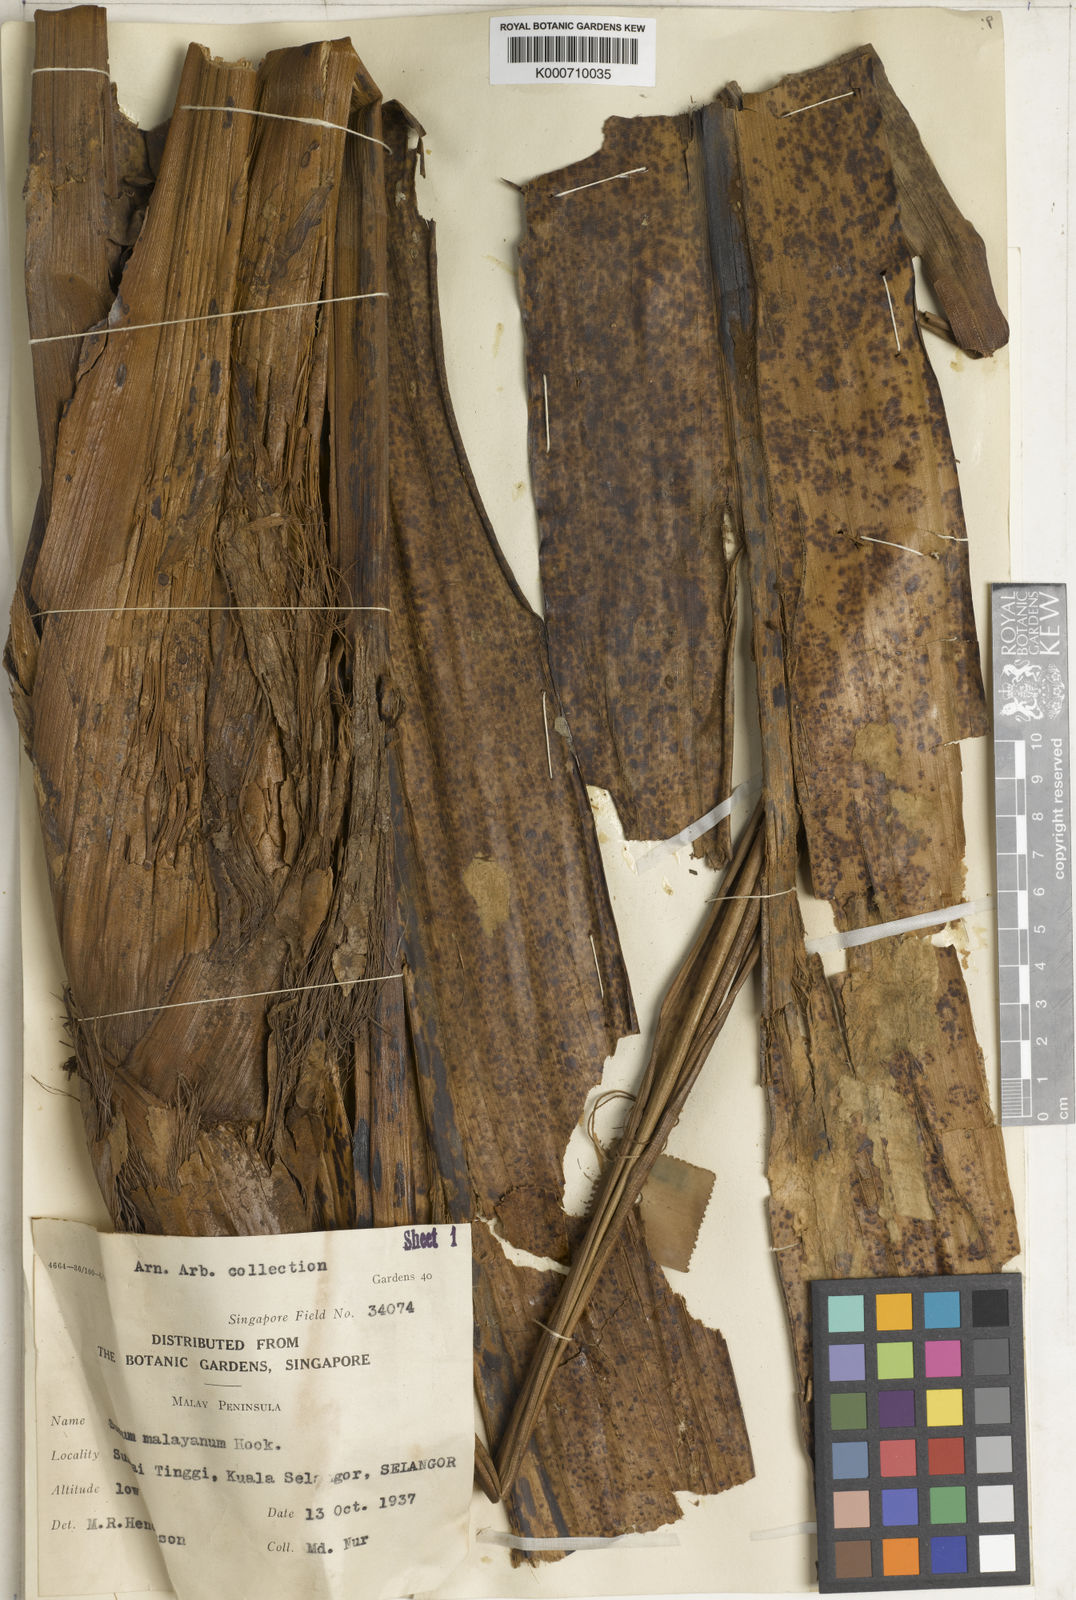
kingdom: Plantae
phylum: Tracheophyta
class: Liliopsida
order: Commelinales
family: Hanguanaceae
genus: Hanguana
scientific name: Hanguana malayana
